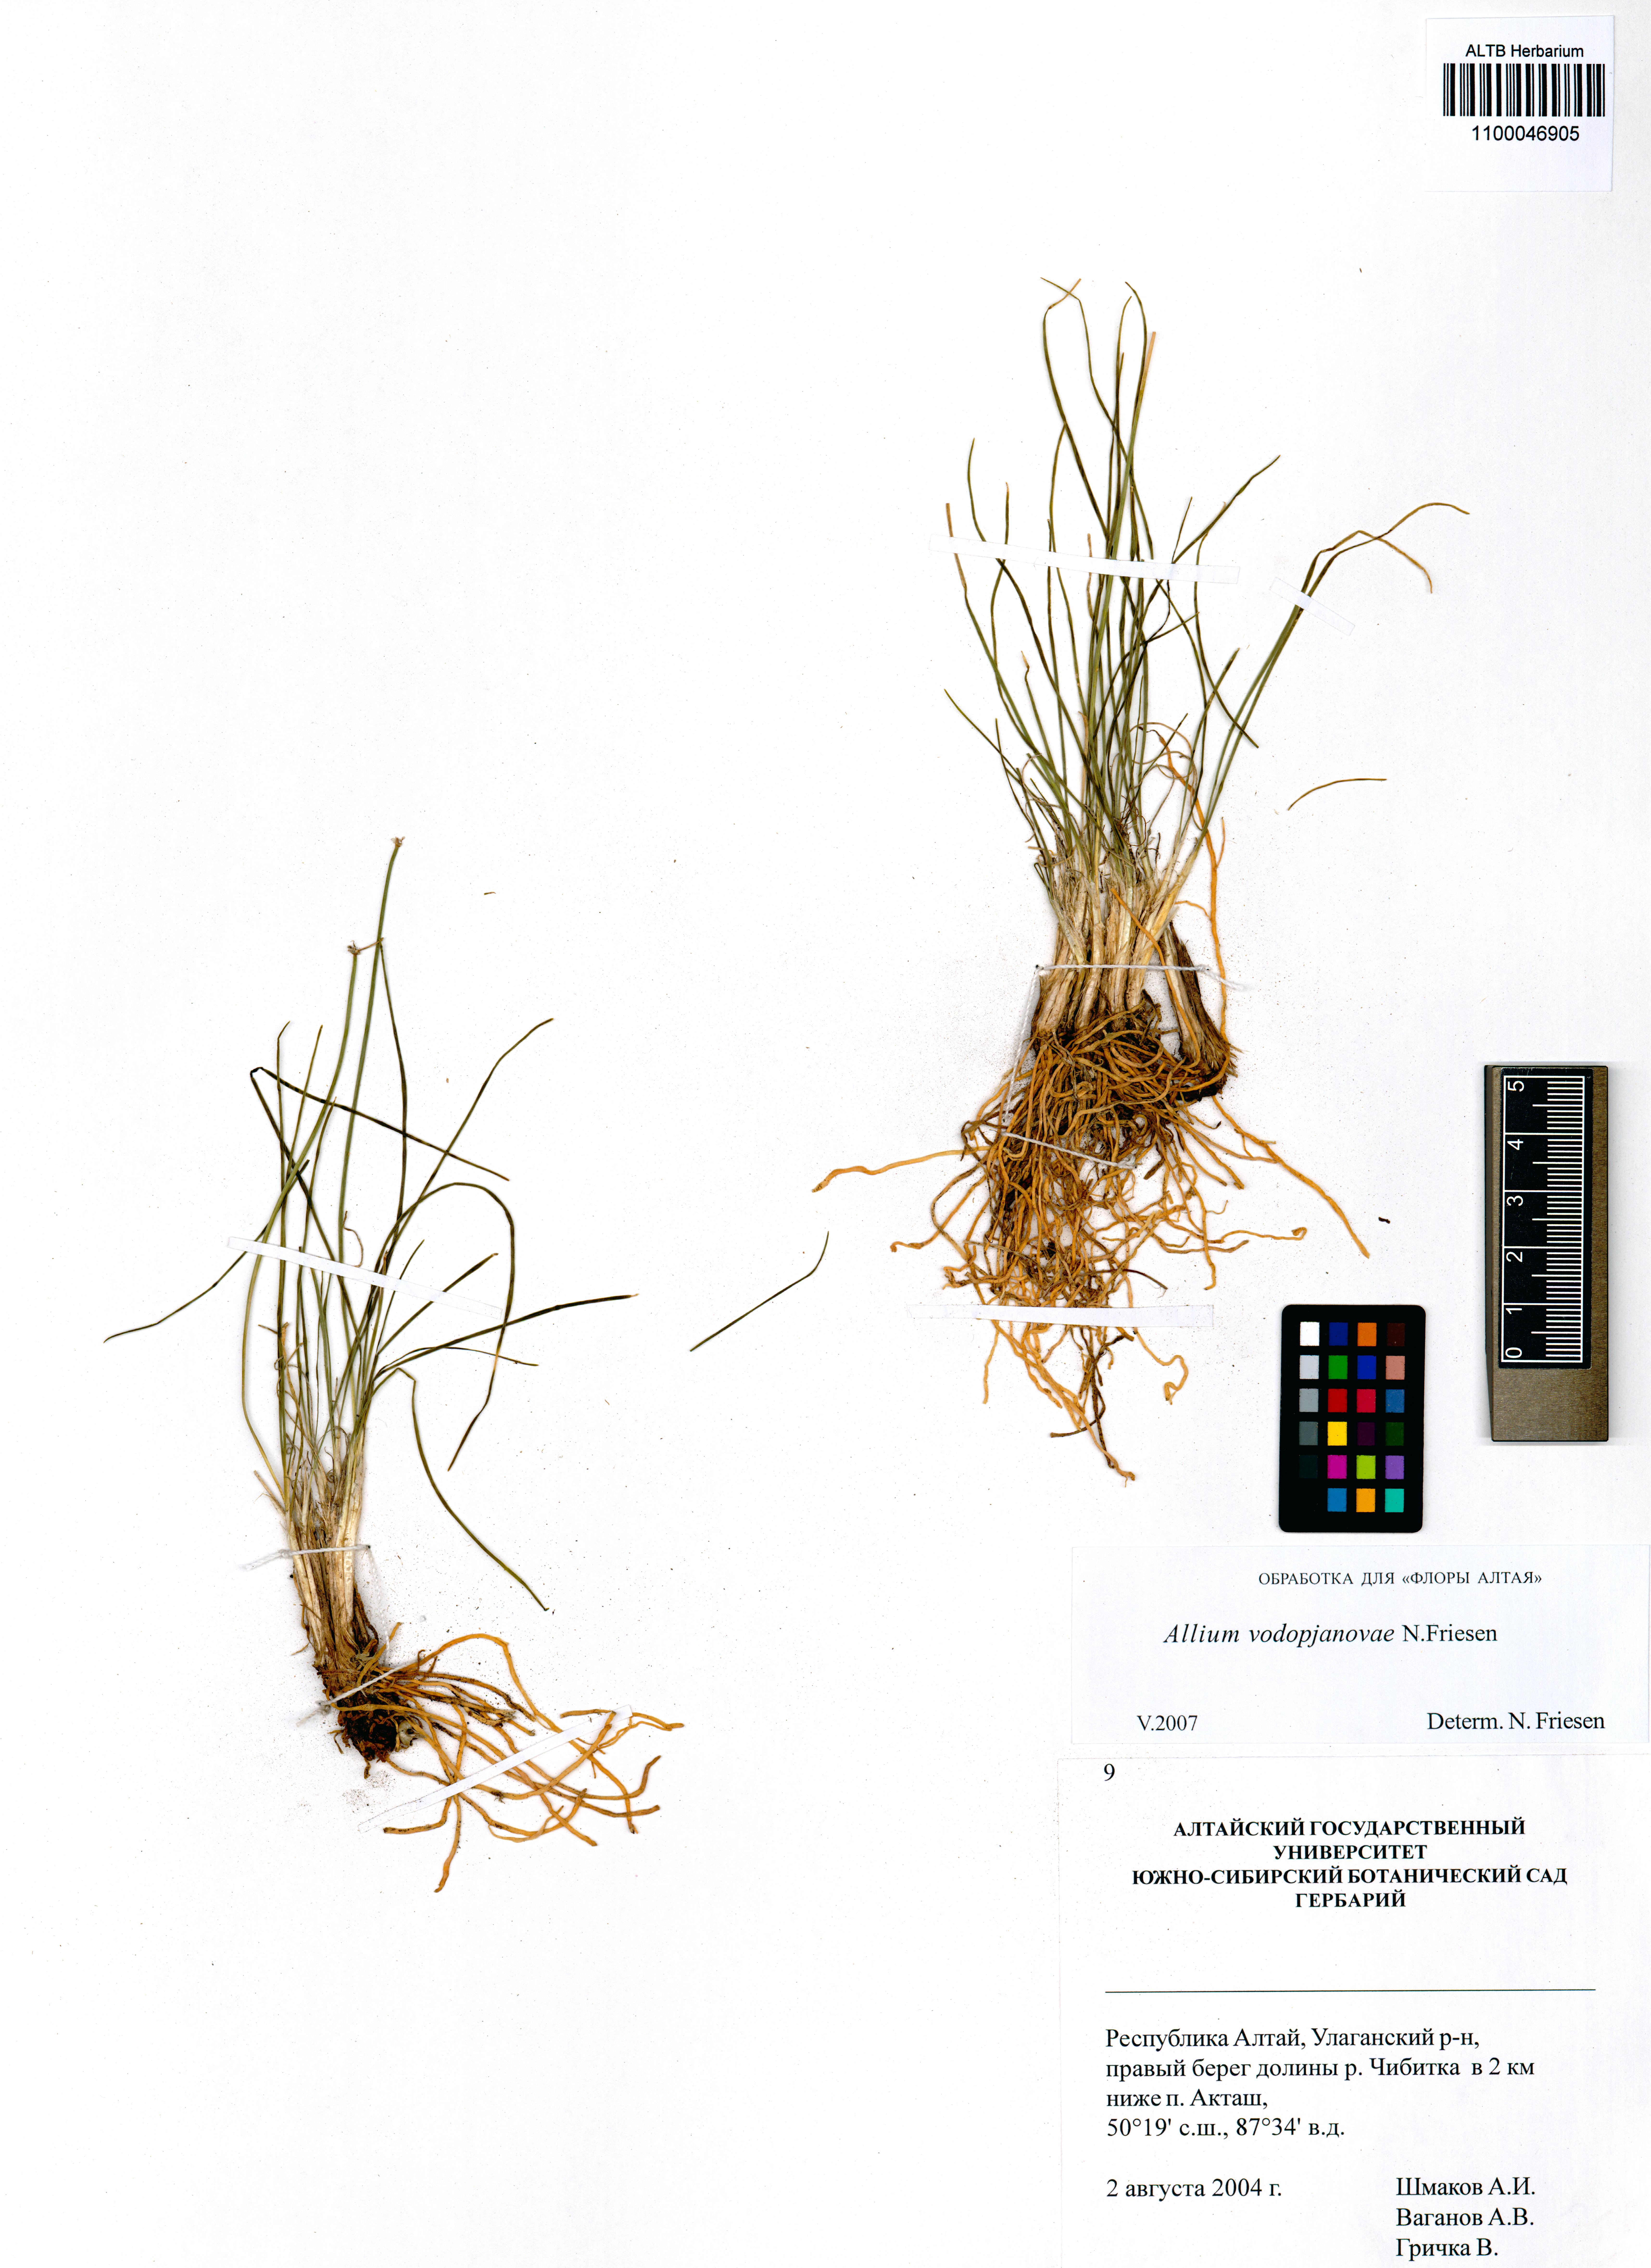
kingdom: Plantae
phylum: Tracheophyta
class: Liliopsida
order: Asparagales
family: Amaryllidaceae
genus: Allium
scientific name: Allium vodopjanovae
